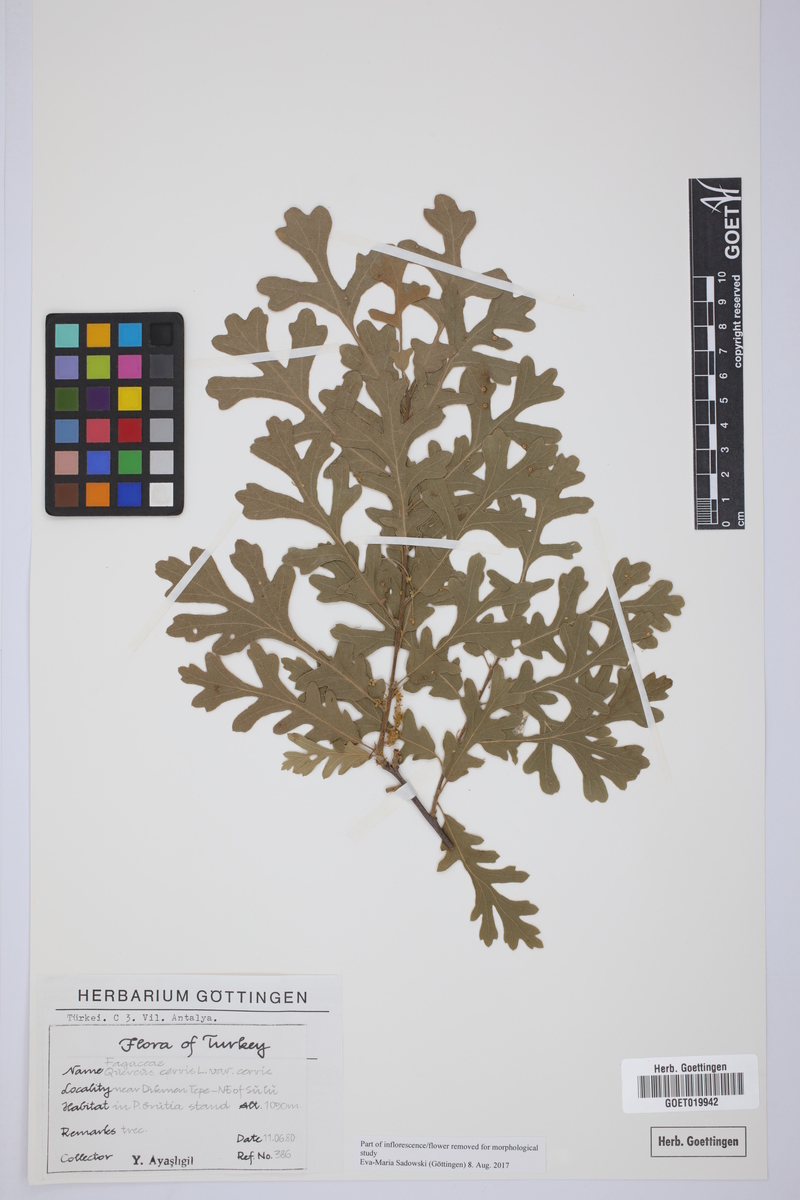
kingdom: Plantae
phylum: Tracheophyta
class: Magnoliopsida
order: Fagales
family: Fagaceae
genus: Quercus
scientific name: Quercus cerris
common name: Turkey oak
